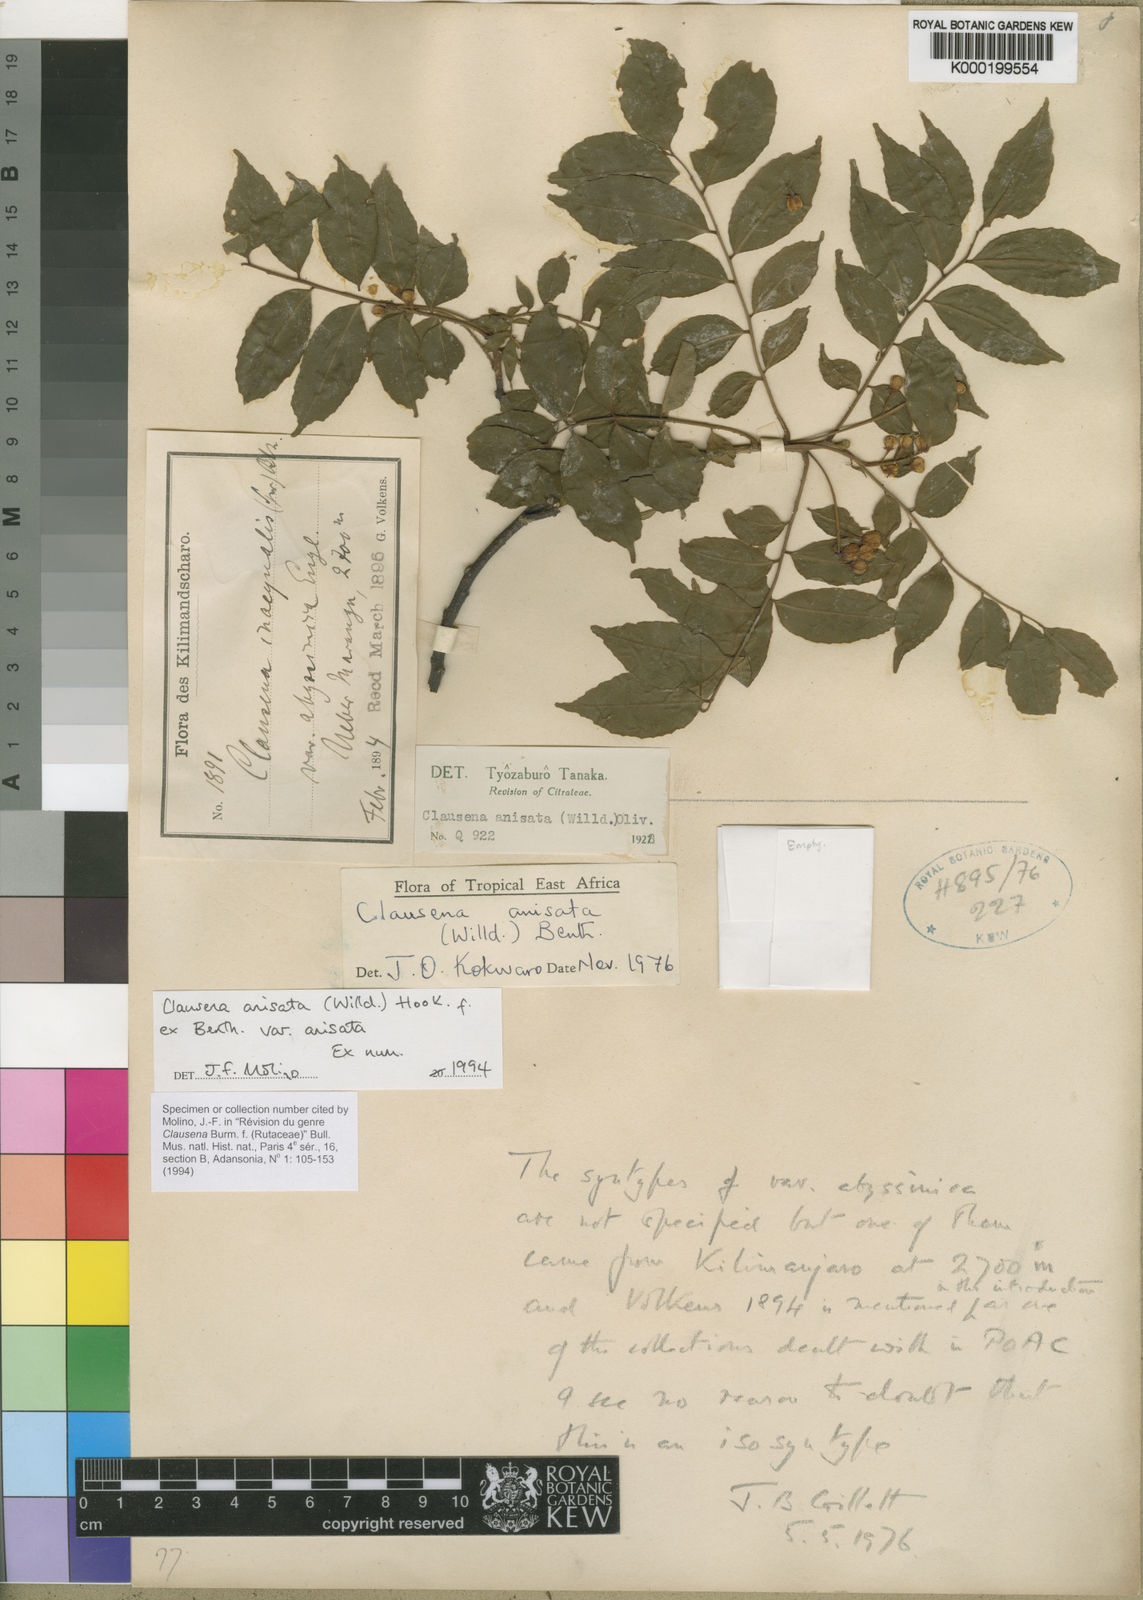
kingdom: Plantae
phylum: Tracheophyta
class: Magnoliopsida
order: Sapindales
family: Rutaceae
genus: Clausena
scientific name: Clausena anisata
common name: Horsewood
